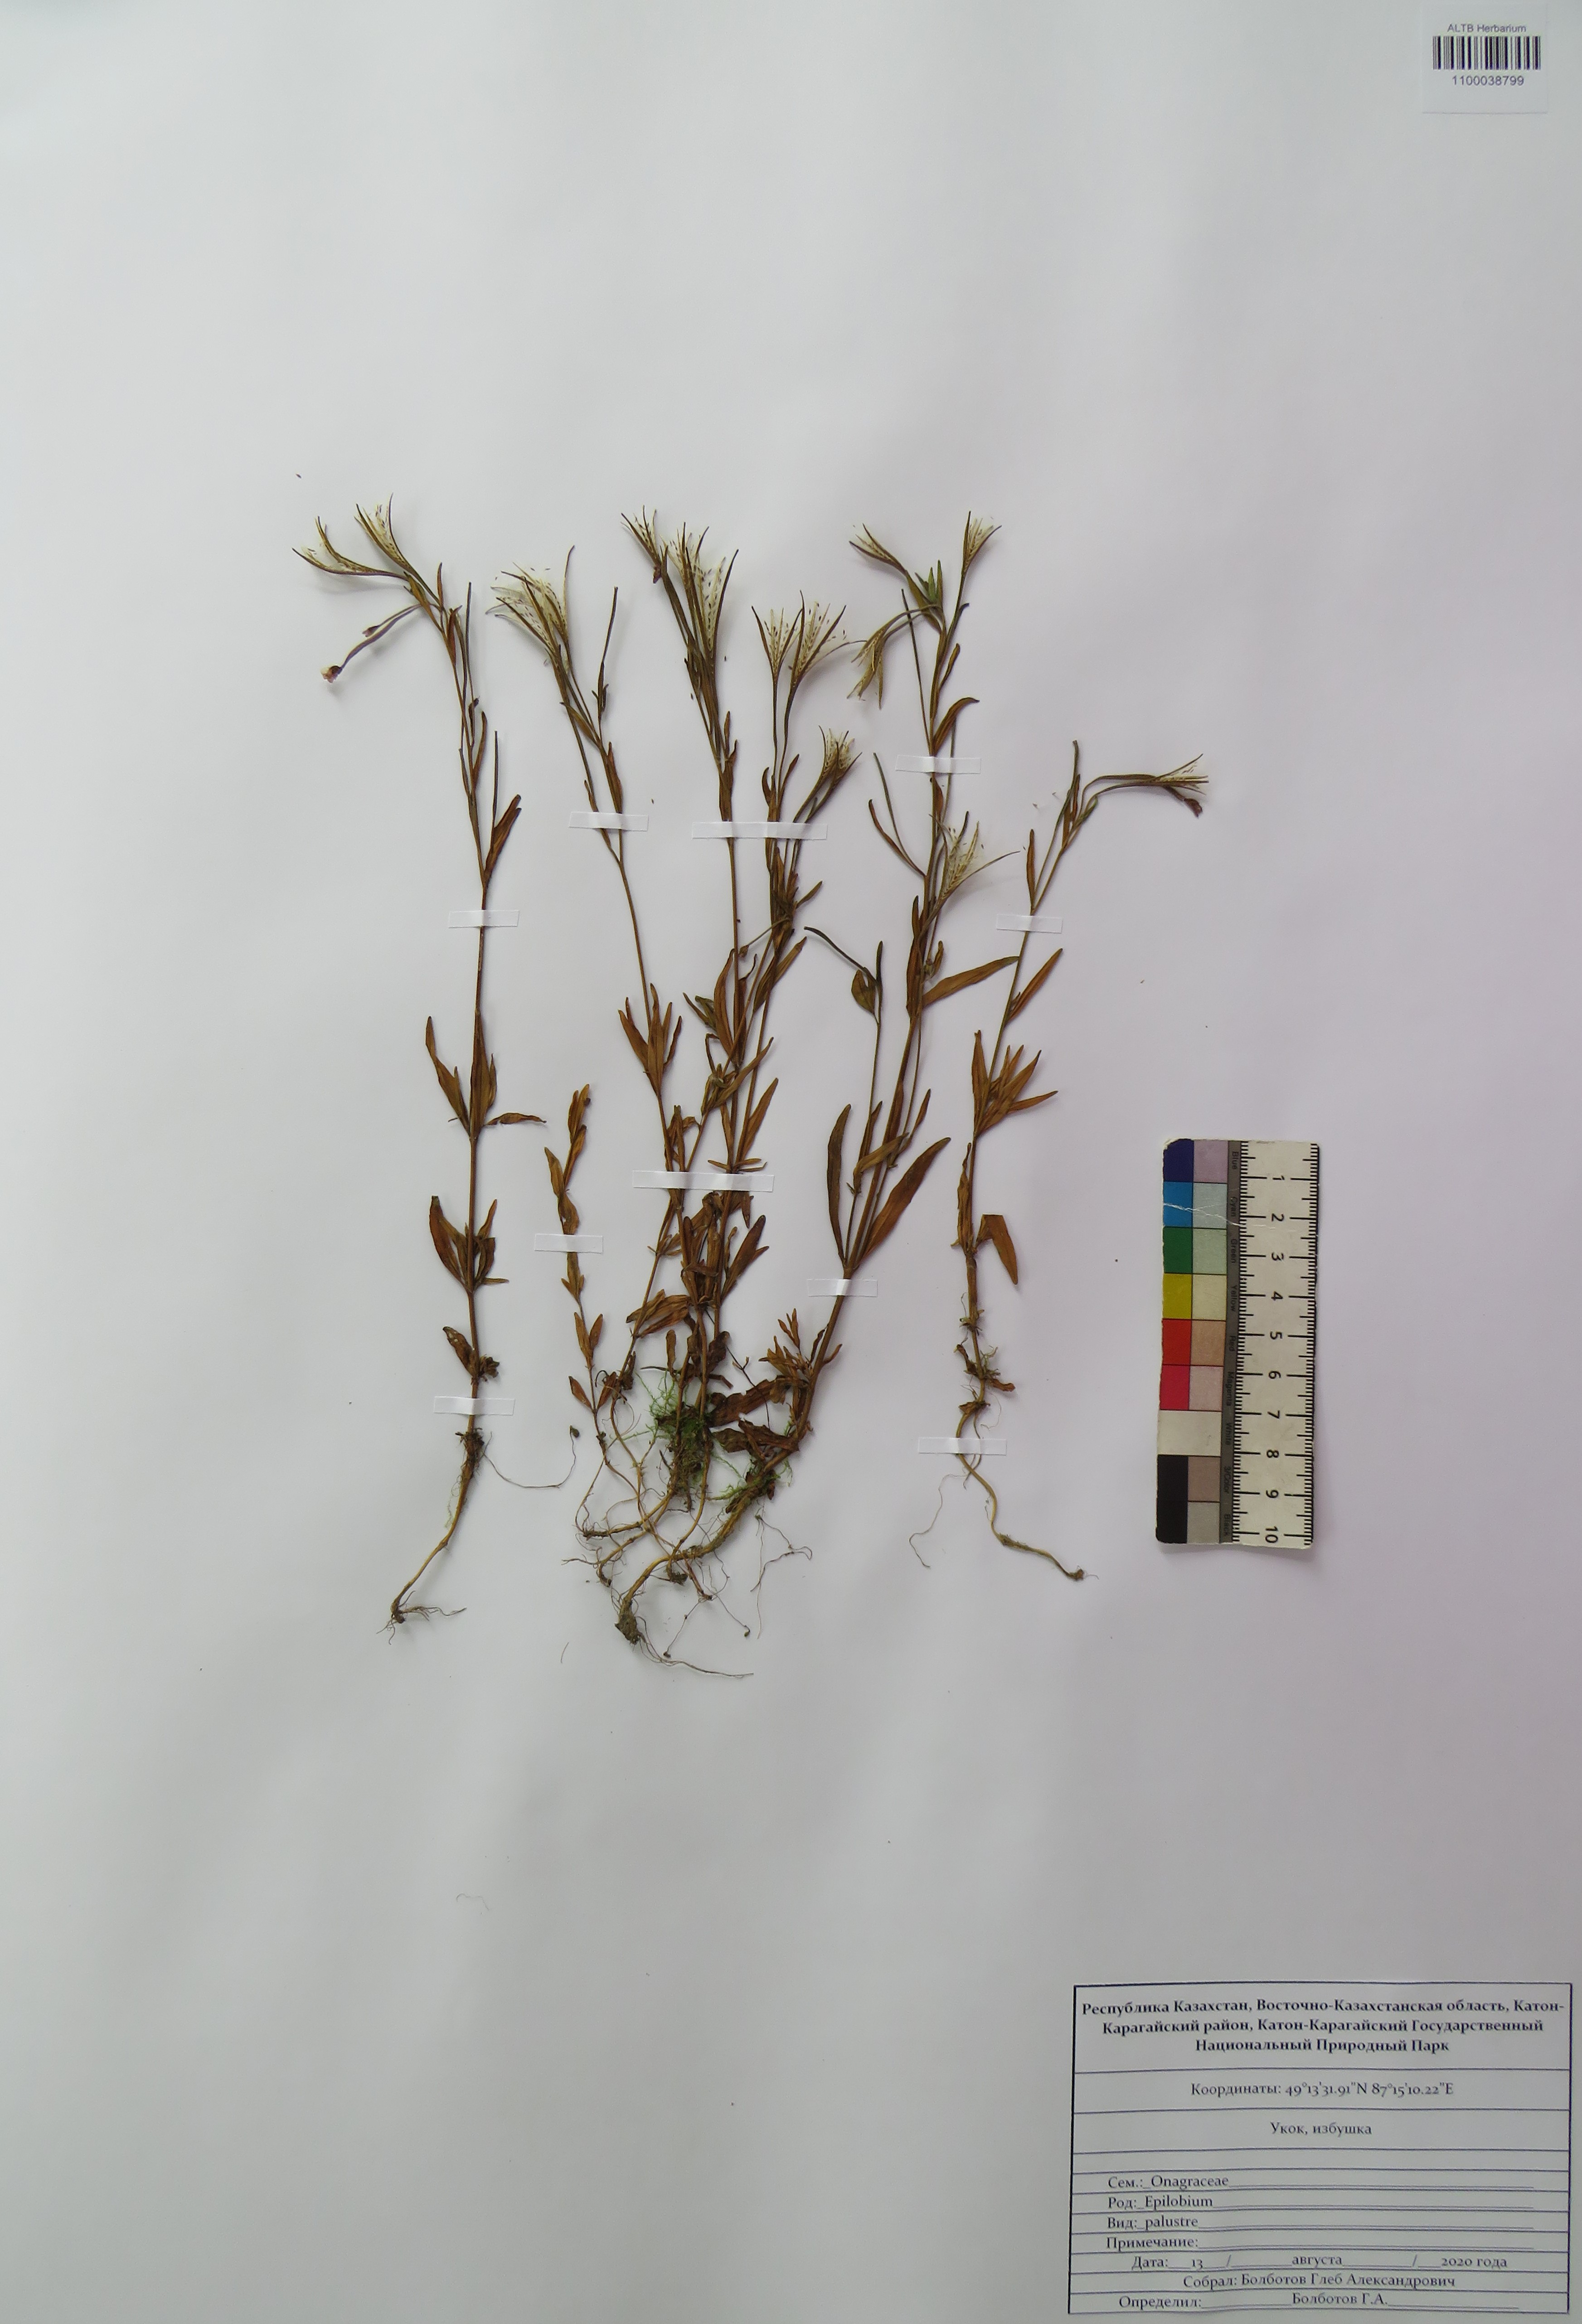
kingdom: Plantae
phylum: Tracheophyta
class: Magnoliopsida
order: Myrtales
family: Onagraceae
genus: Epilobium
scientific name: Epilobium palustre
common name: Marsh willowherb
